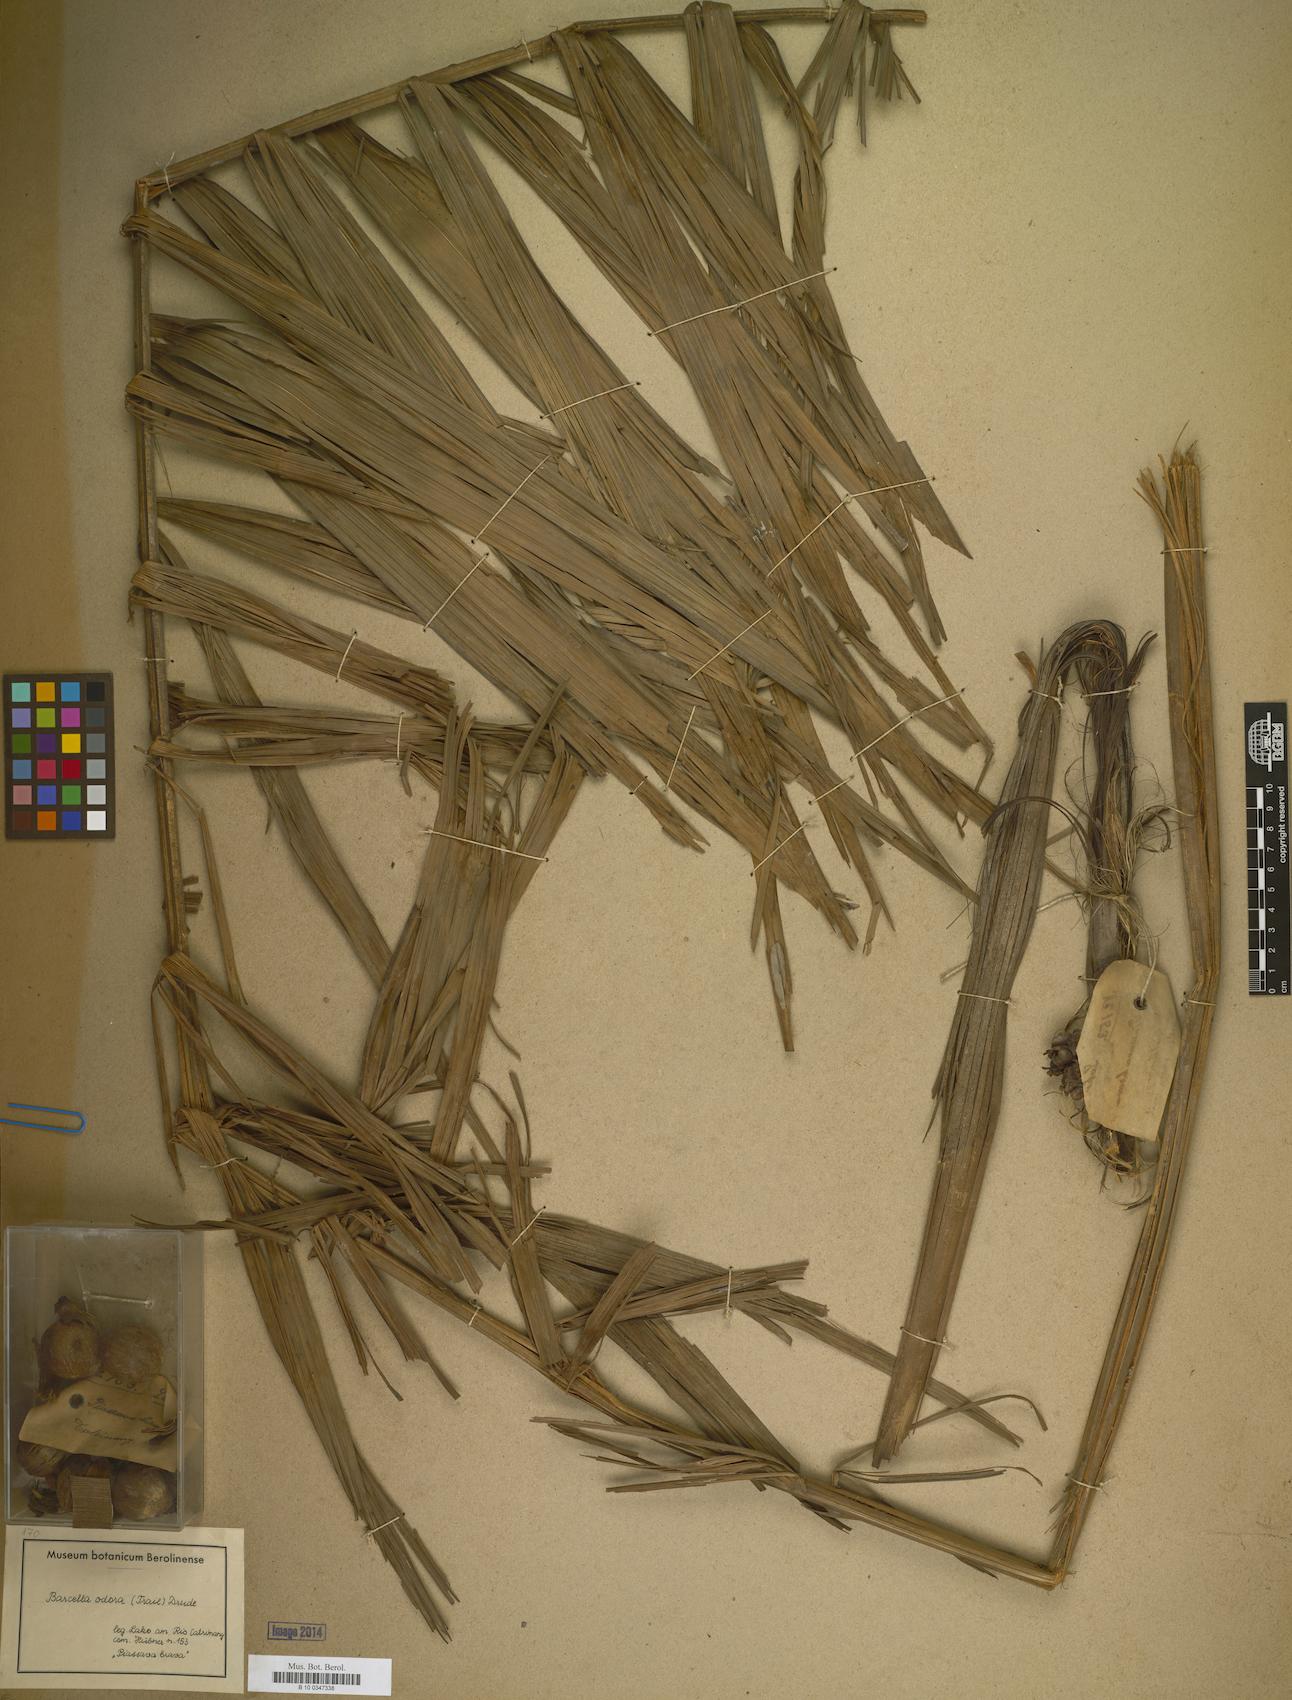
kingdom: Plantae
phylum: Tracheophyta
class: Liliopsida
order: Arecales
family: Arecaceae
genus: Barcella
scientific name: Barcella odora
